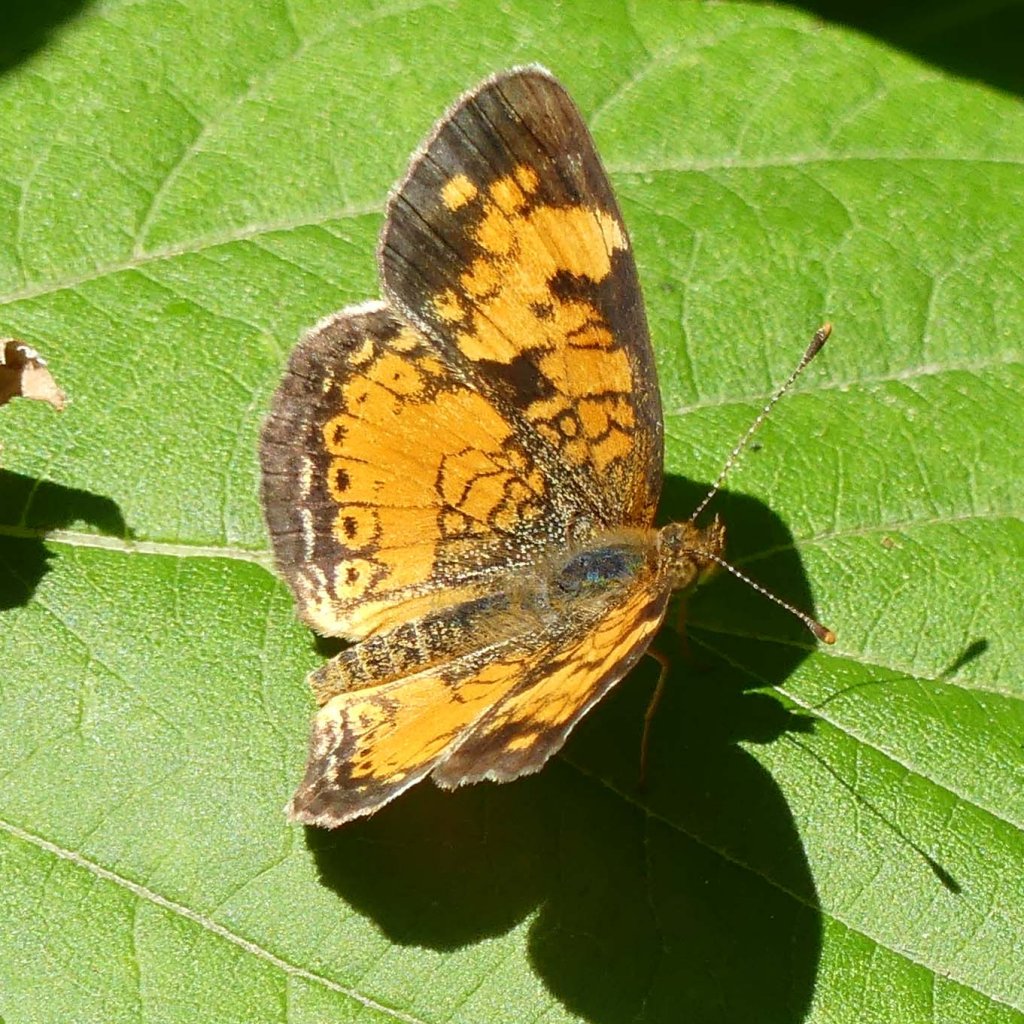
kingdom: Animalia
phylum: Arthropoda
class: Insecta
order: Lepidoptera
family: Nymphalidae
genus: Phyciodes
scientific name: Phyciodes tharos
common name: Northern Crescent
